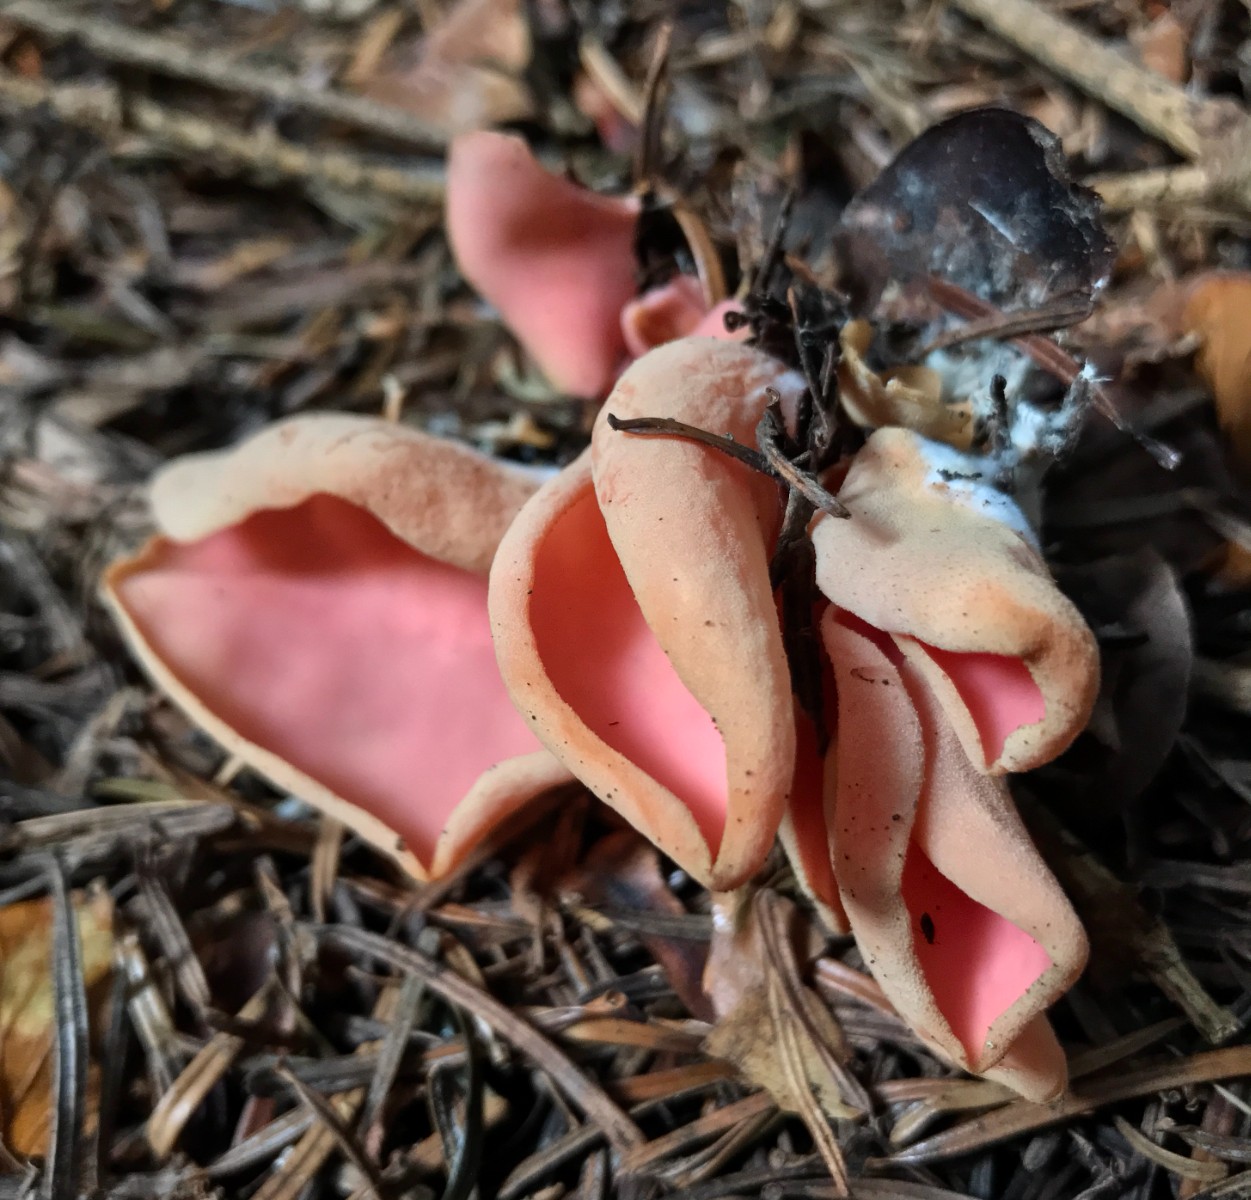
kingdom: Fungi
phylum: Ascomycota
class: Pezizomycetes
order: Pezizales
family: Otideaceae
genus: Otidea
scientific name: Otidea onotica
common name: æsel-ørebæger
